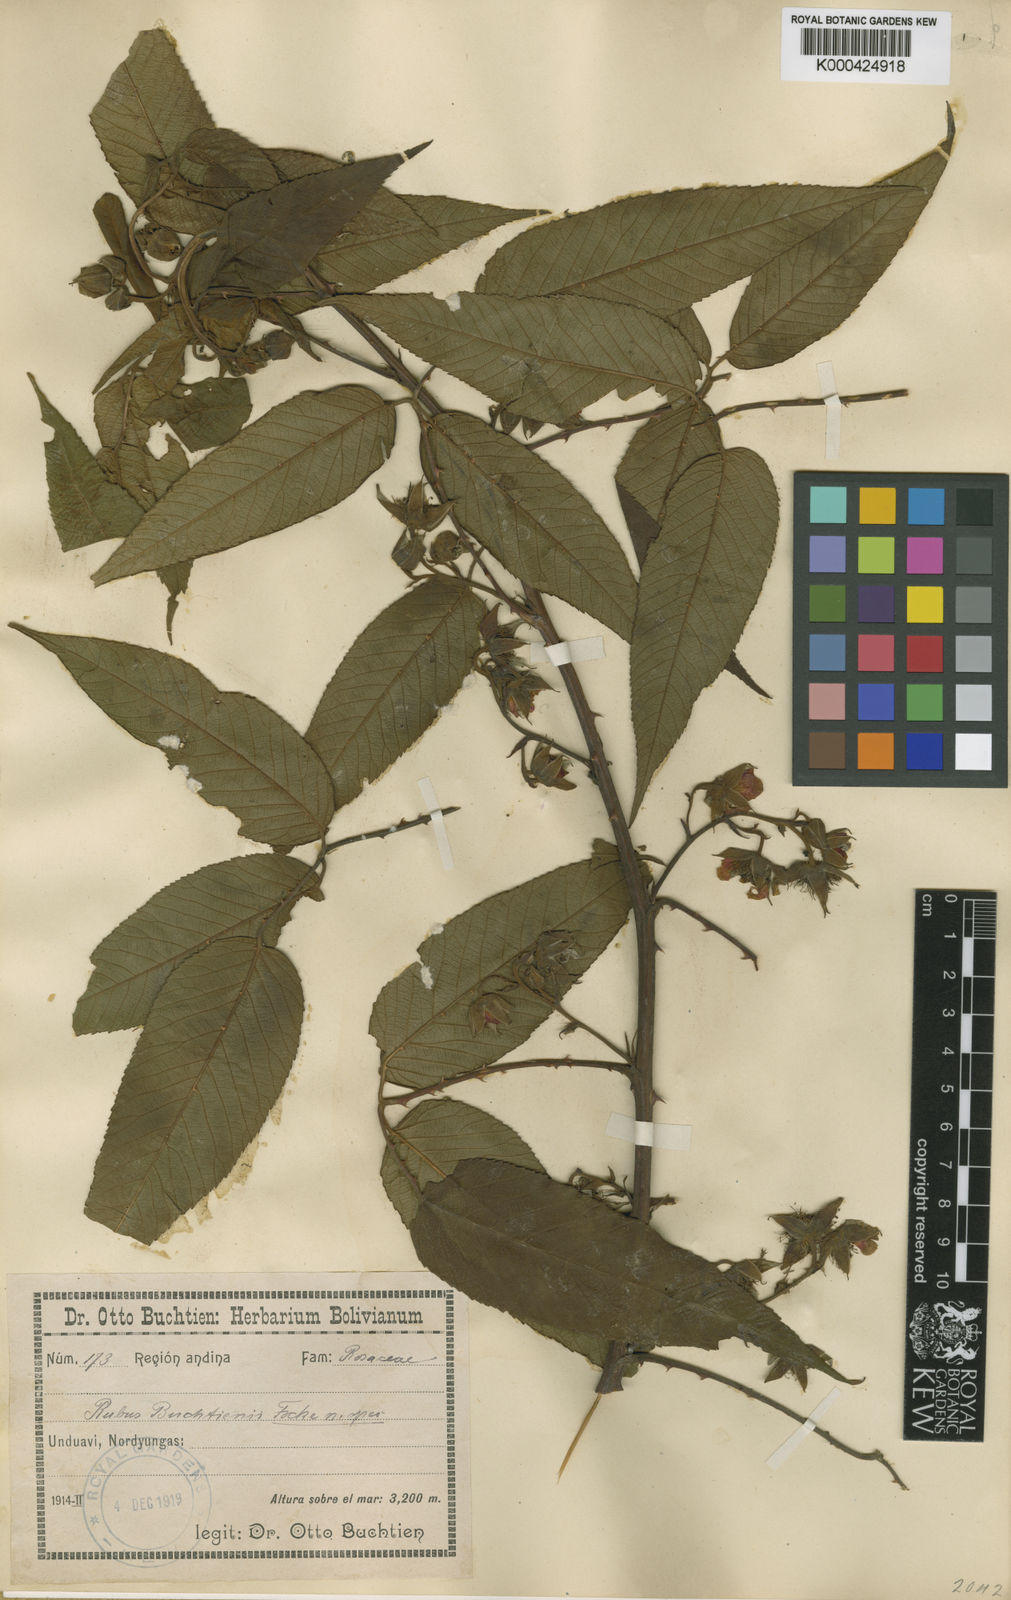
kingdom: Plantae
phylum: Tracheophyta
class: Magnoliopsida
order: Rosales
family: Rosaceae
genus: Rubus
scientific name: Rubus buchtienii
